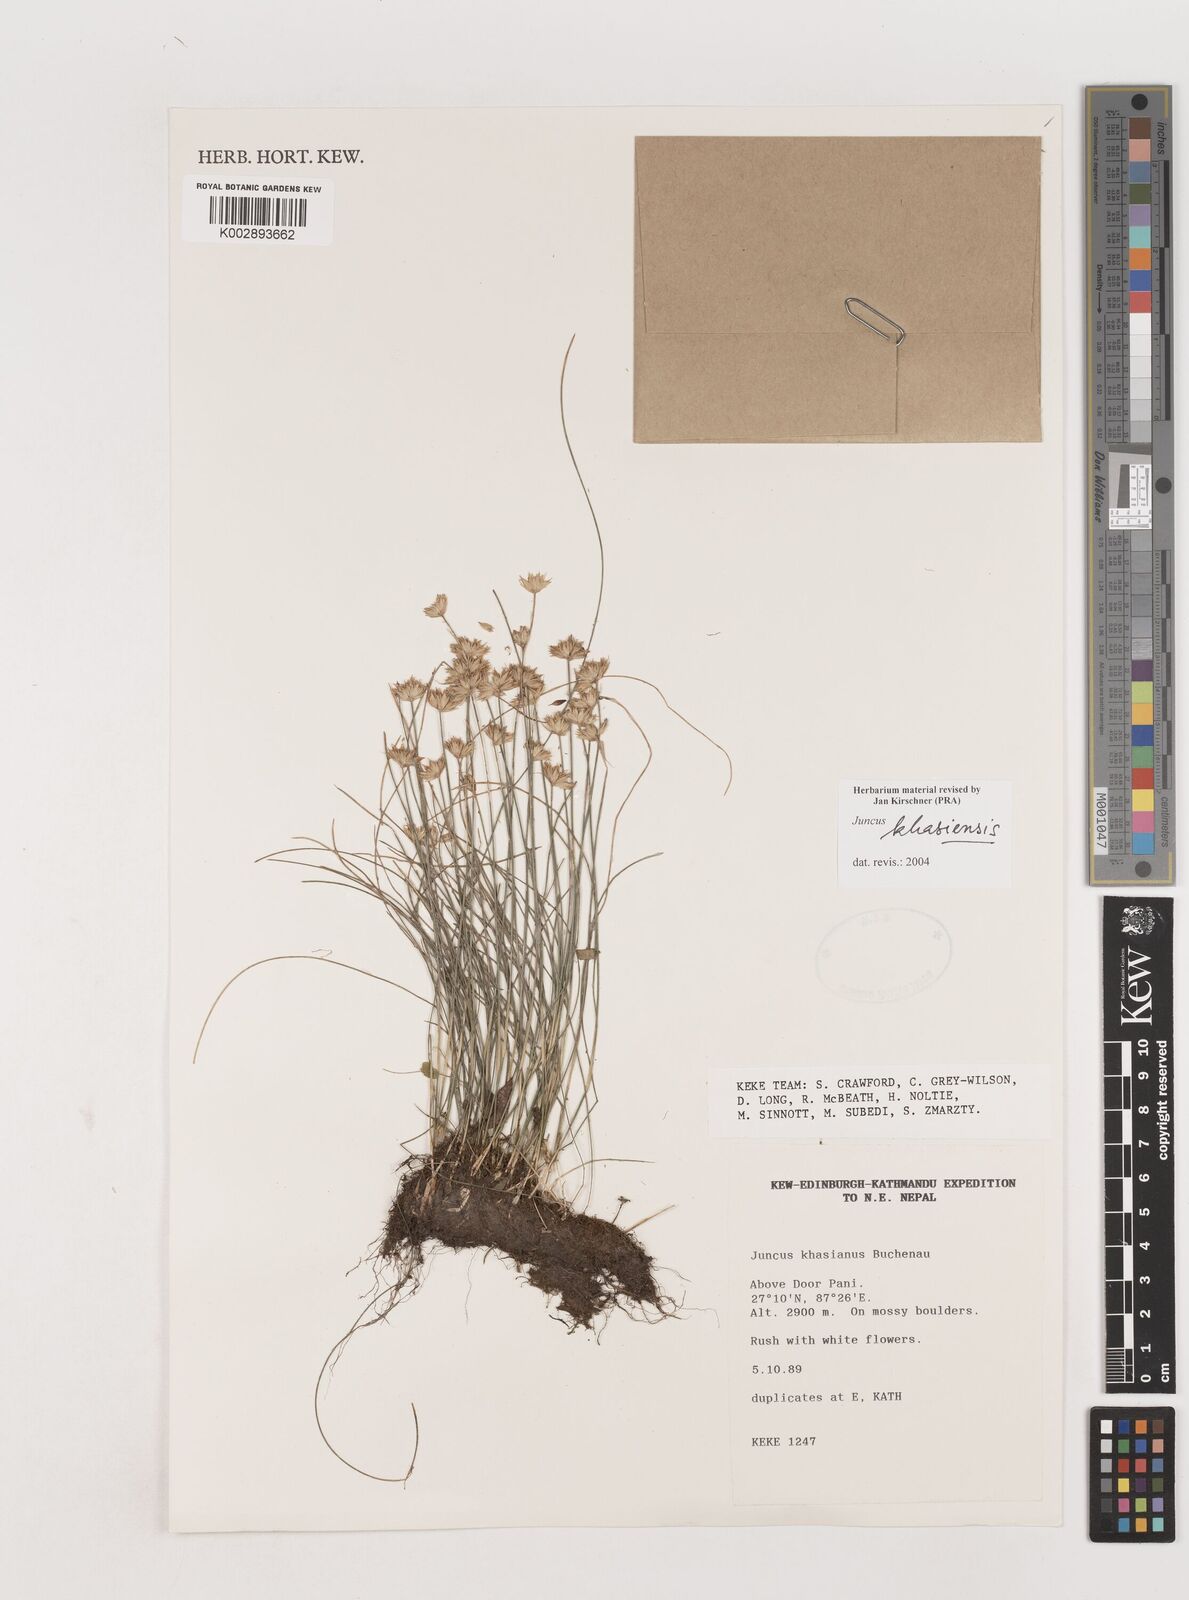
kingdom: Plantae
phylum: Tracheophyta
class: Liliopsida
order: Poales
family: Juncaceae
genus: Juncus
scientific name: Juncus khasiensis
